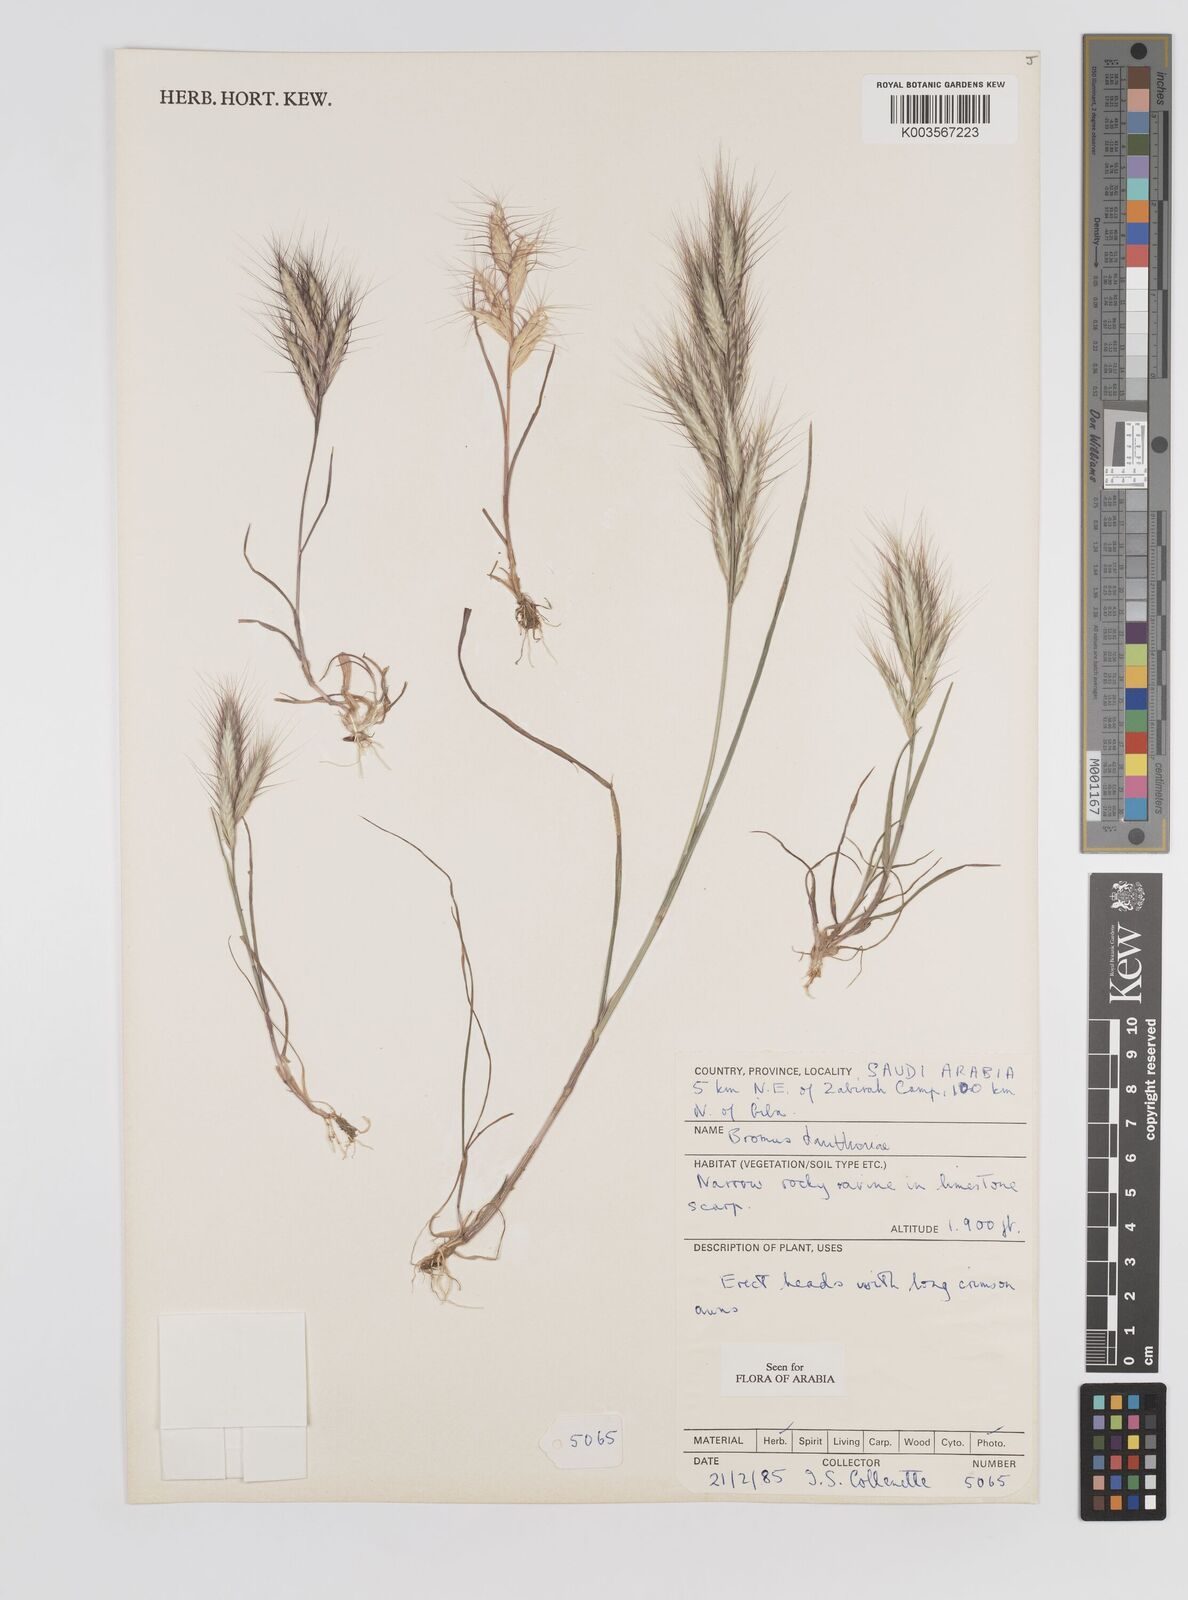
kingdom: Plantae
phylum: Tracheophyta
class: Liliopsida
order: Poales
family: Poaceae
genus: Bromus
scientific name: Bromus danthoniae
